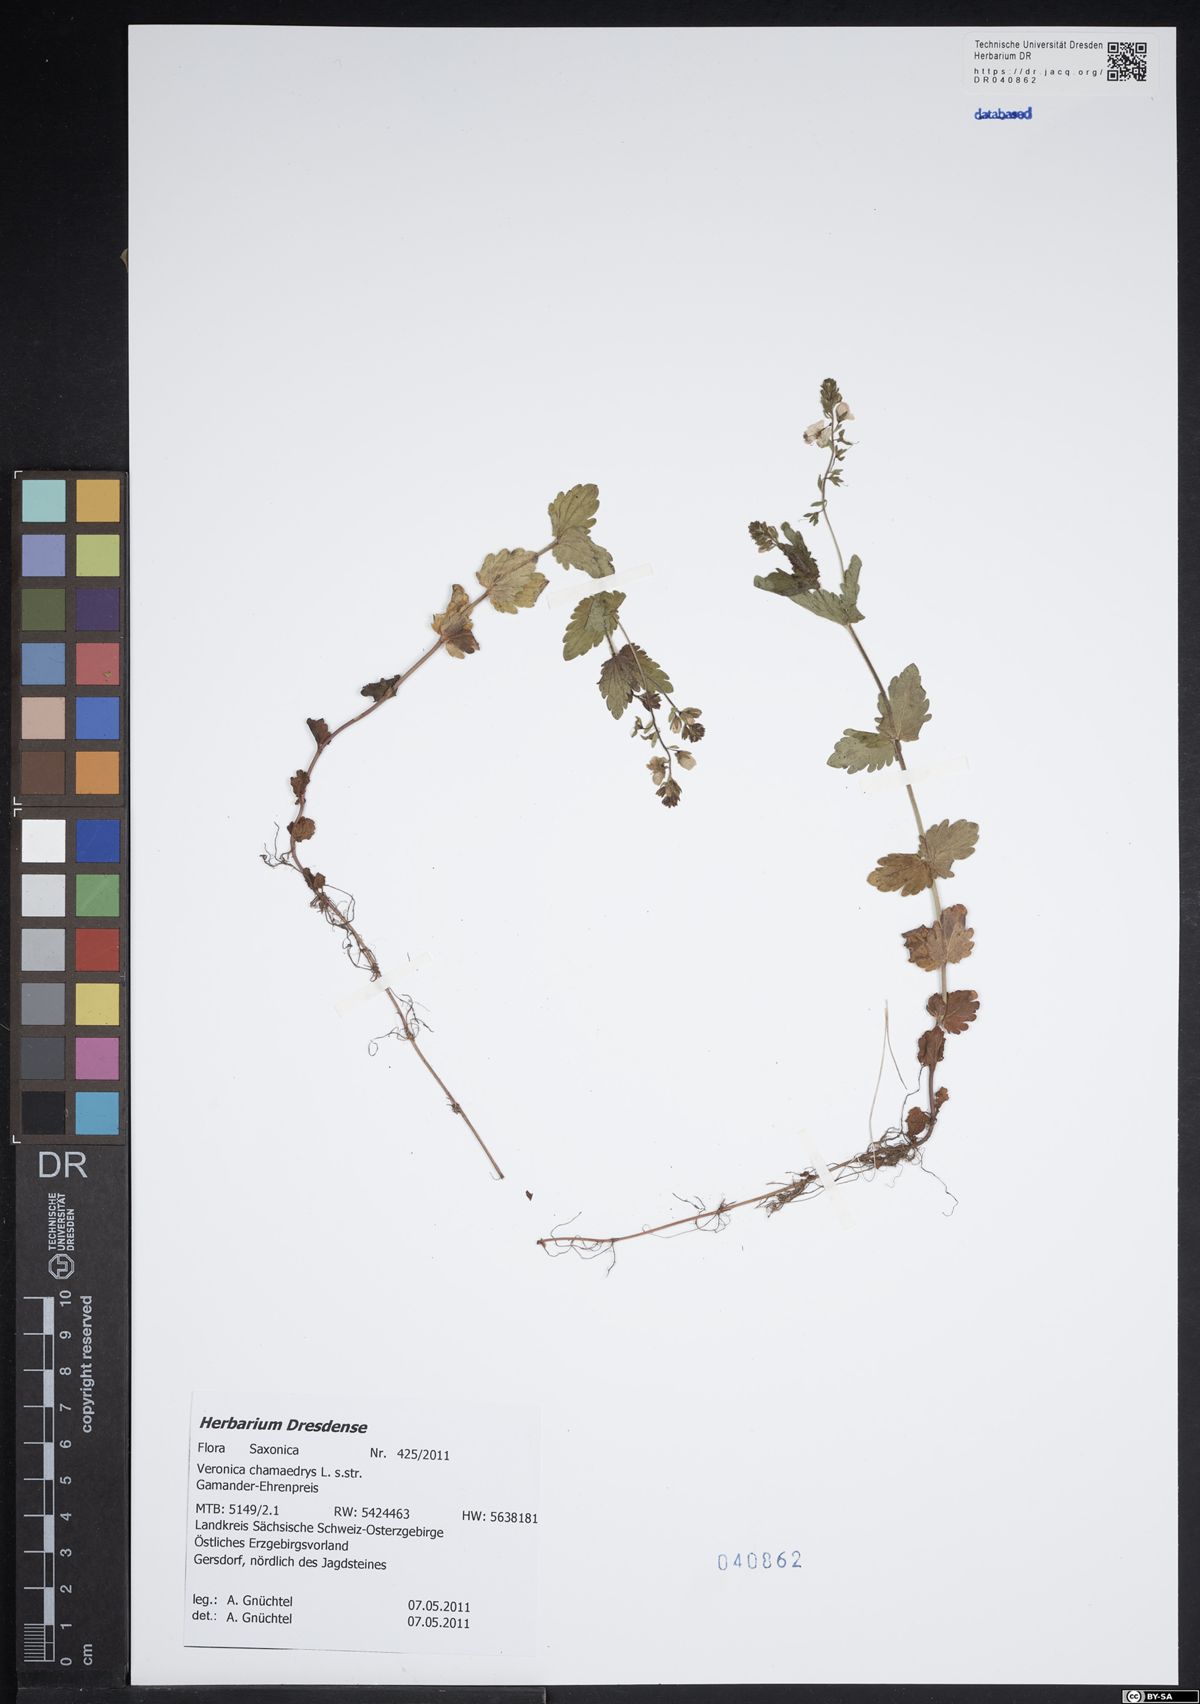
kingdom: Plantae
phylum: Tracheophyta
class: Magnoliopsida
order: Lamiales
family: Plantaginaceae
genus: Veronica
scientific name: Veronica chamaedrys
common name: Germander speedwell
